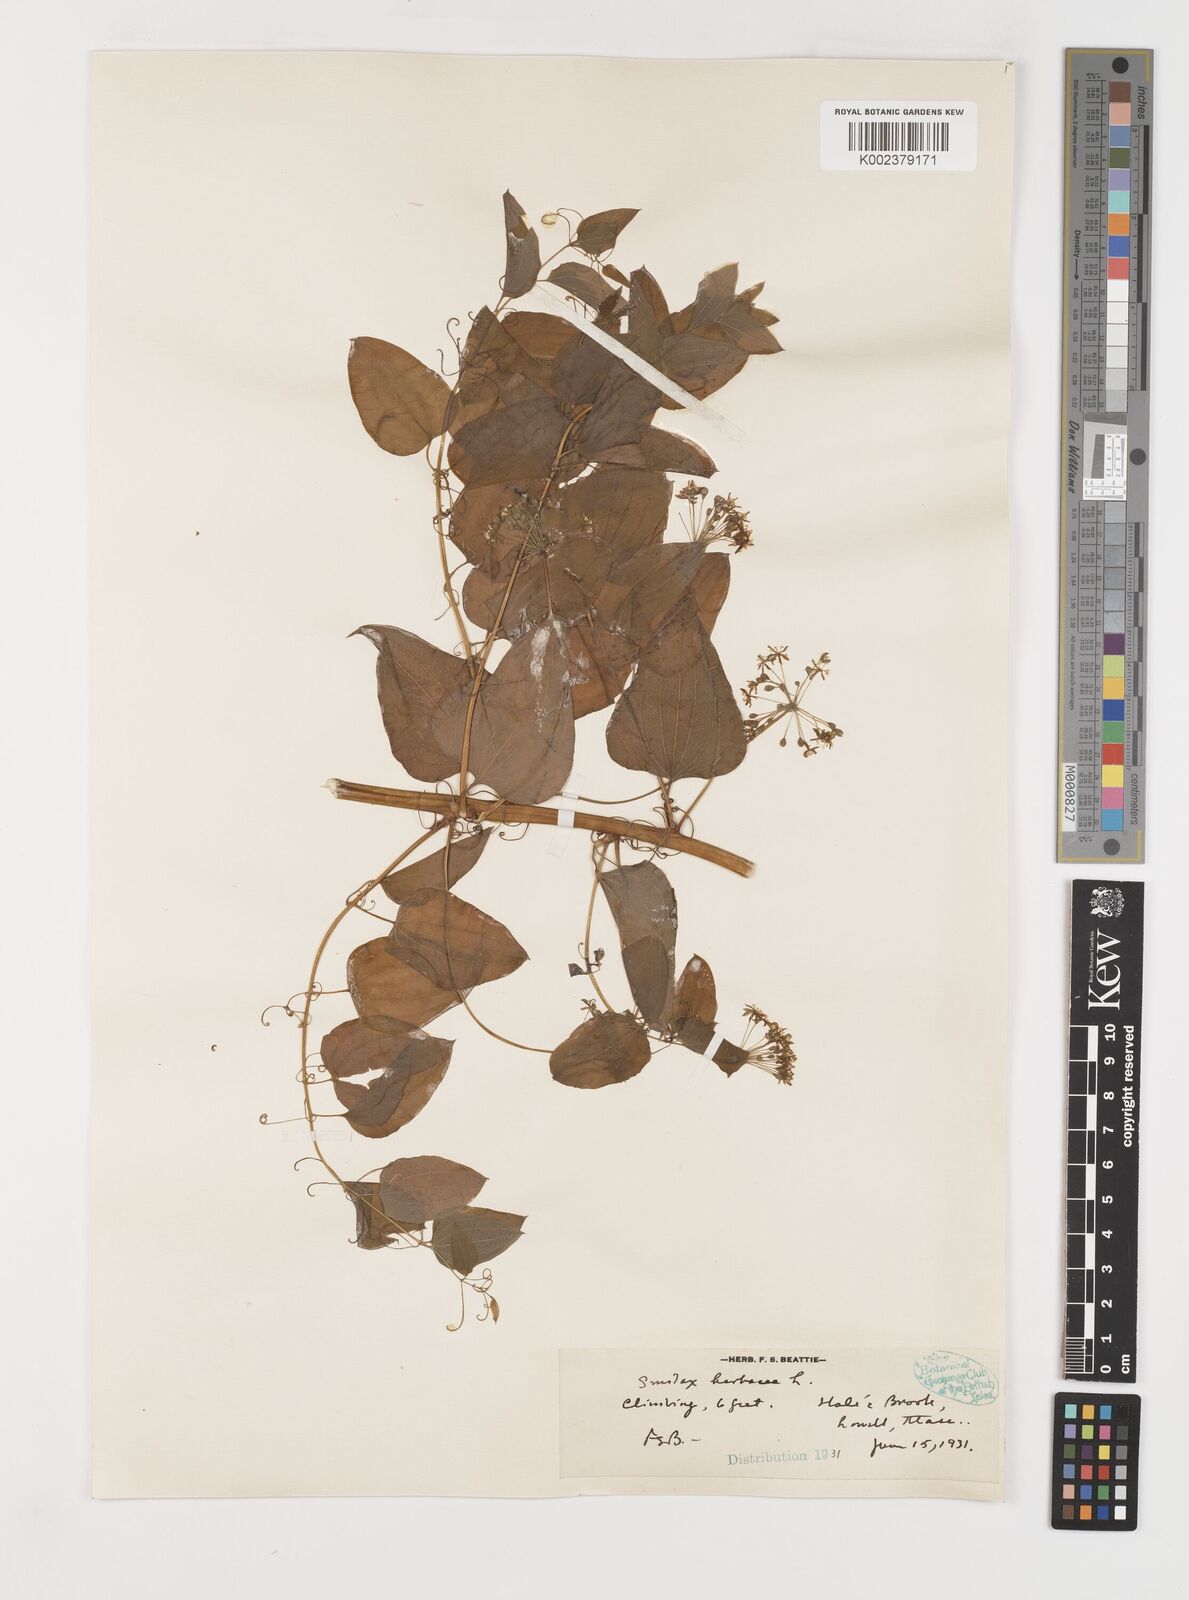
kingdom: Plantae
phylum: Tracheophyta
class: Liliopsida
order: Liliales
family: Smilacaceae
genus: Smilax
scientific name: Smilax herbacea
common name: Jacob's-ladder
